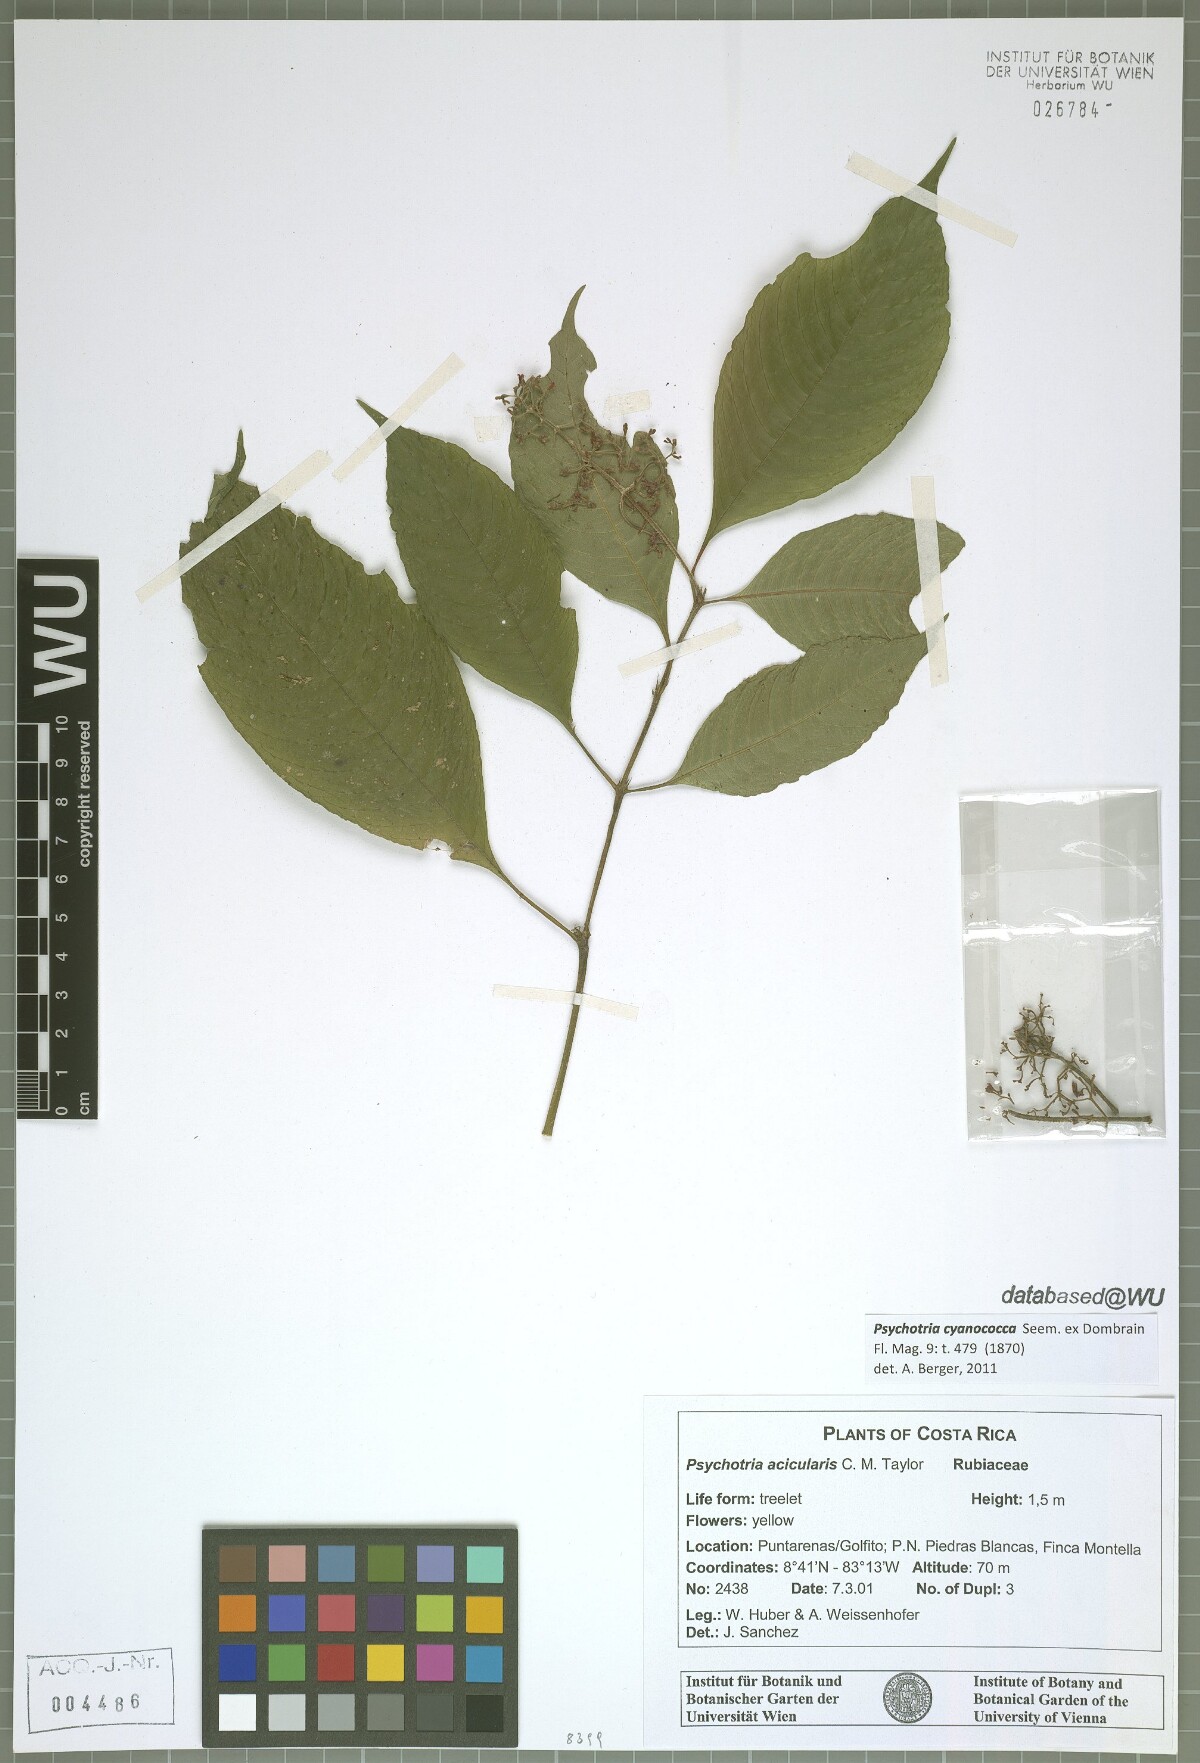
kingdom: Plantae
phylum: Tracheophyta
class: Magnoliopsida
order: Gentianales
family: Rubiaceae
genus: Palicourea
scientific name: Palicourea cyanococca
